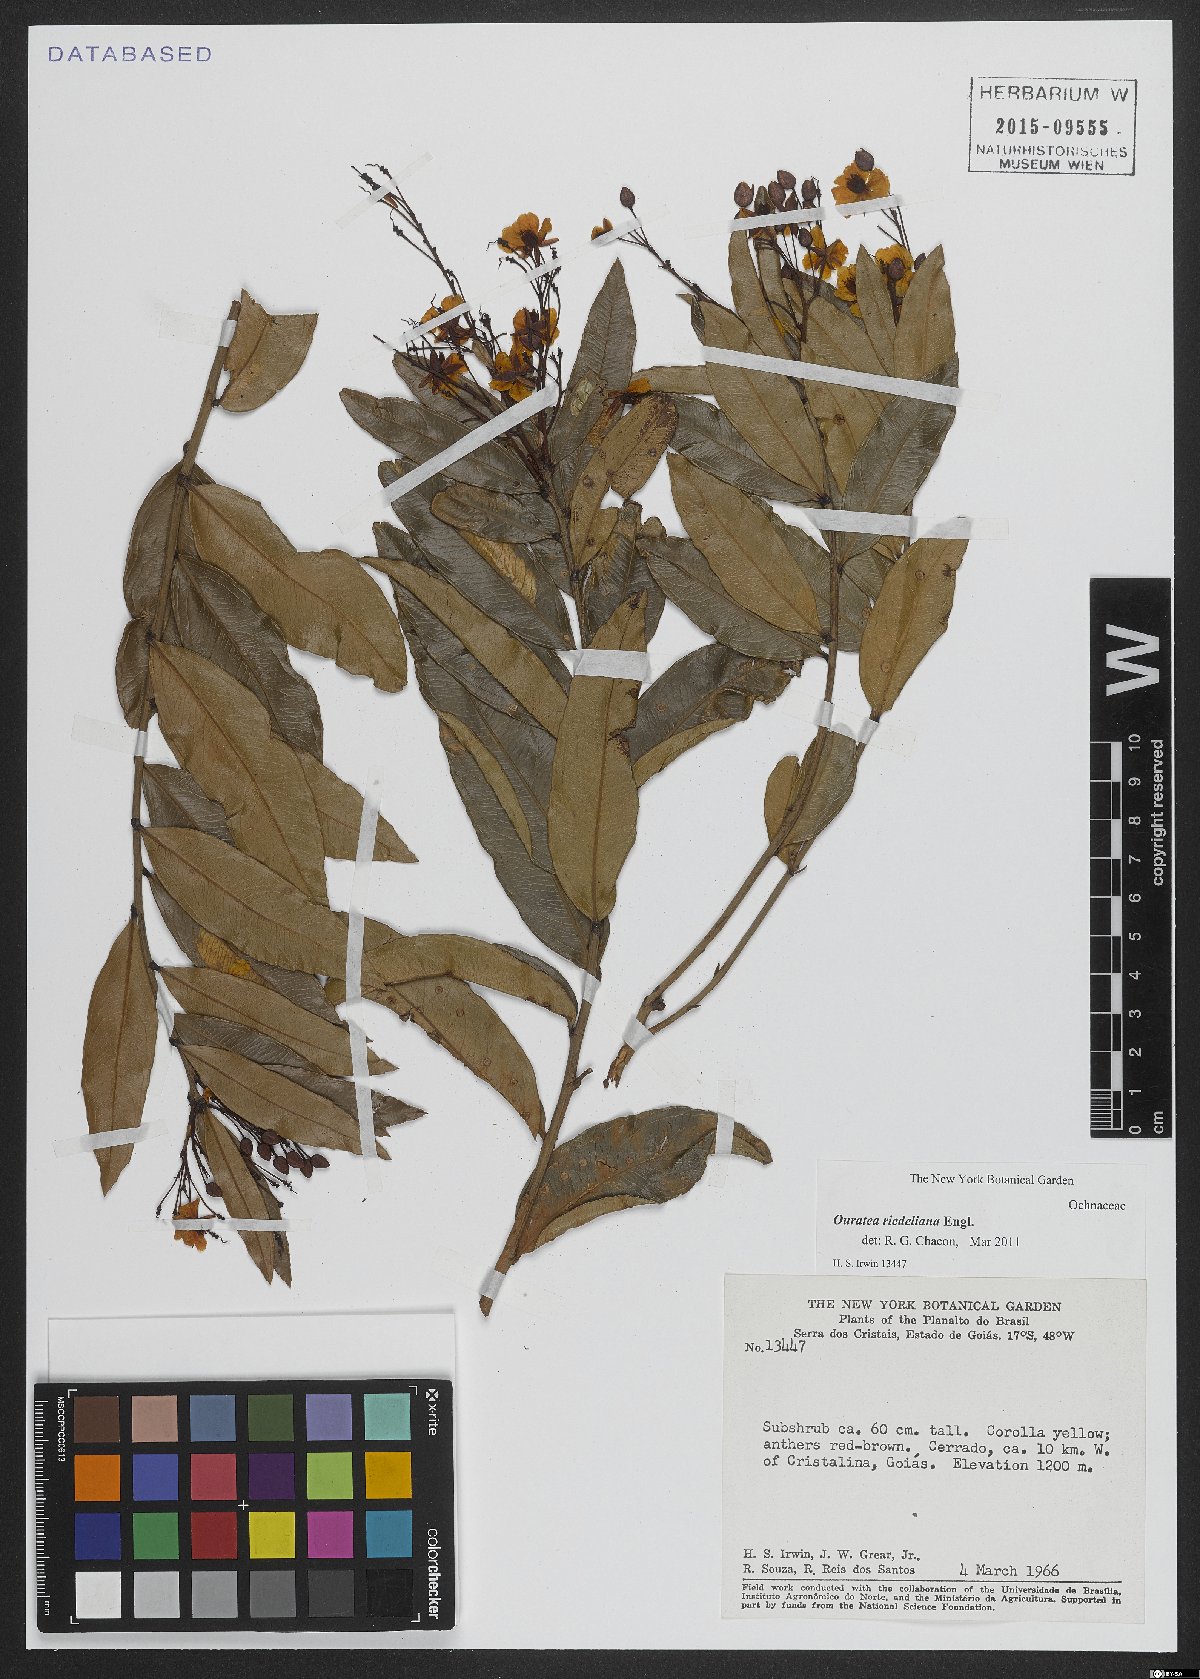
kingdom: Plantae
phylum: Tracheophyta
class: Magnoliopsida
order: Malpighiales
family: Ochnaceae
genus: Ouratea
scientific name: Ouratea riedeliana
